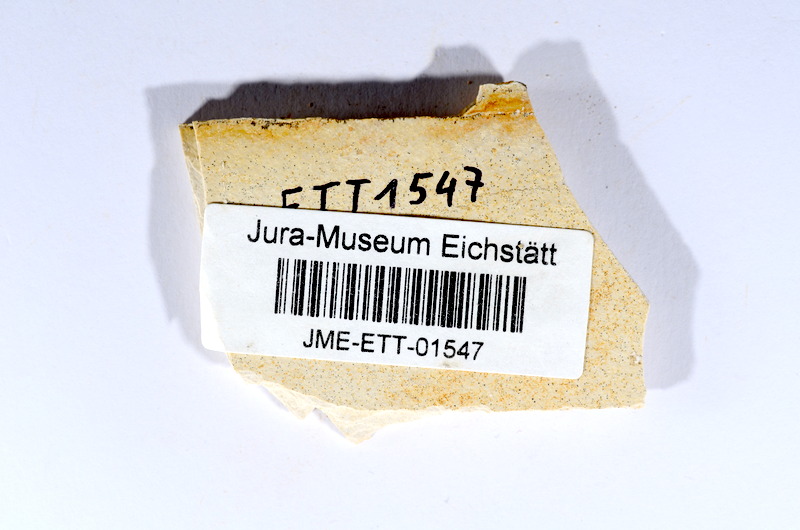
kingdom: Animalia
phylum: Chordata
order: Salmoniformes
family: Orthogonikleithridae
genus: Orthogonikleithrus
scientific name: Orthogonikleithrus hoelli
